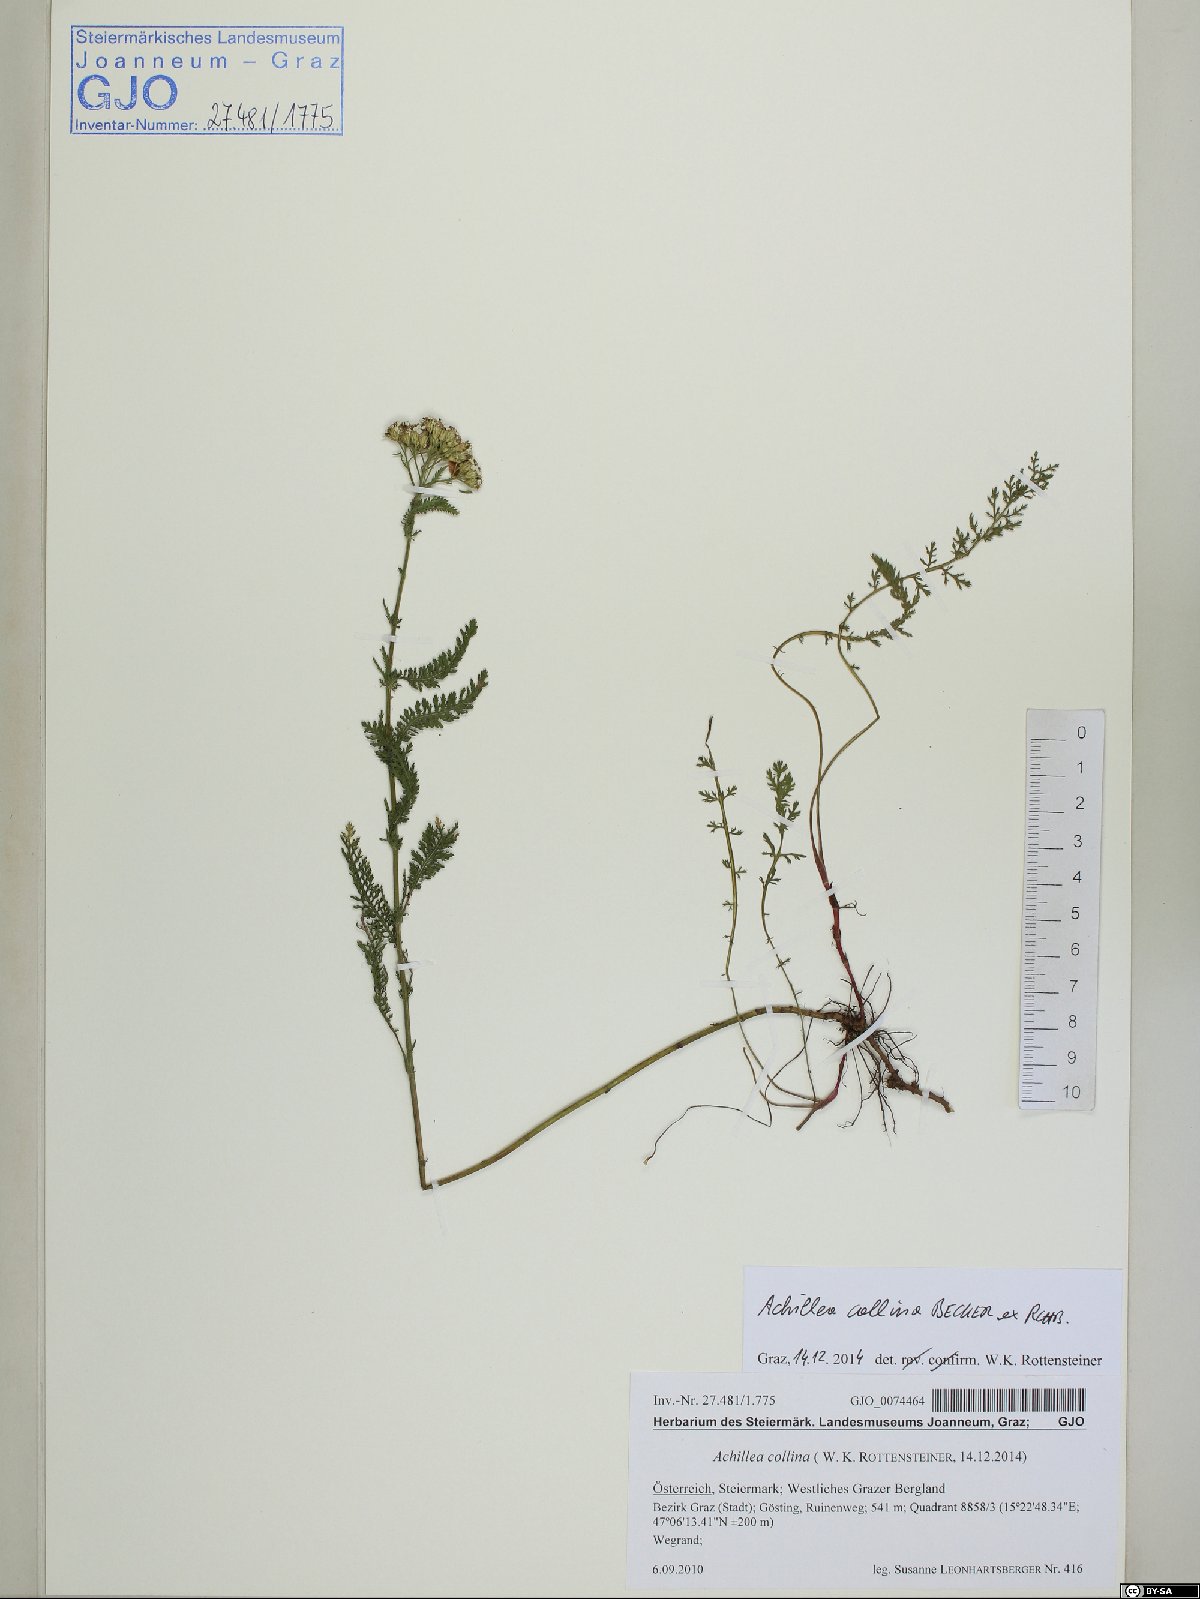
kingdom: Plantae
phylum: Tracheophyta
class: Magnoliopsida
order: Asterales
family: Asteraceae
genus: Achillea
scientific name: Achillea collina
